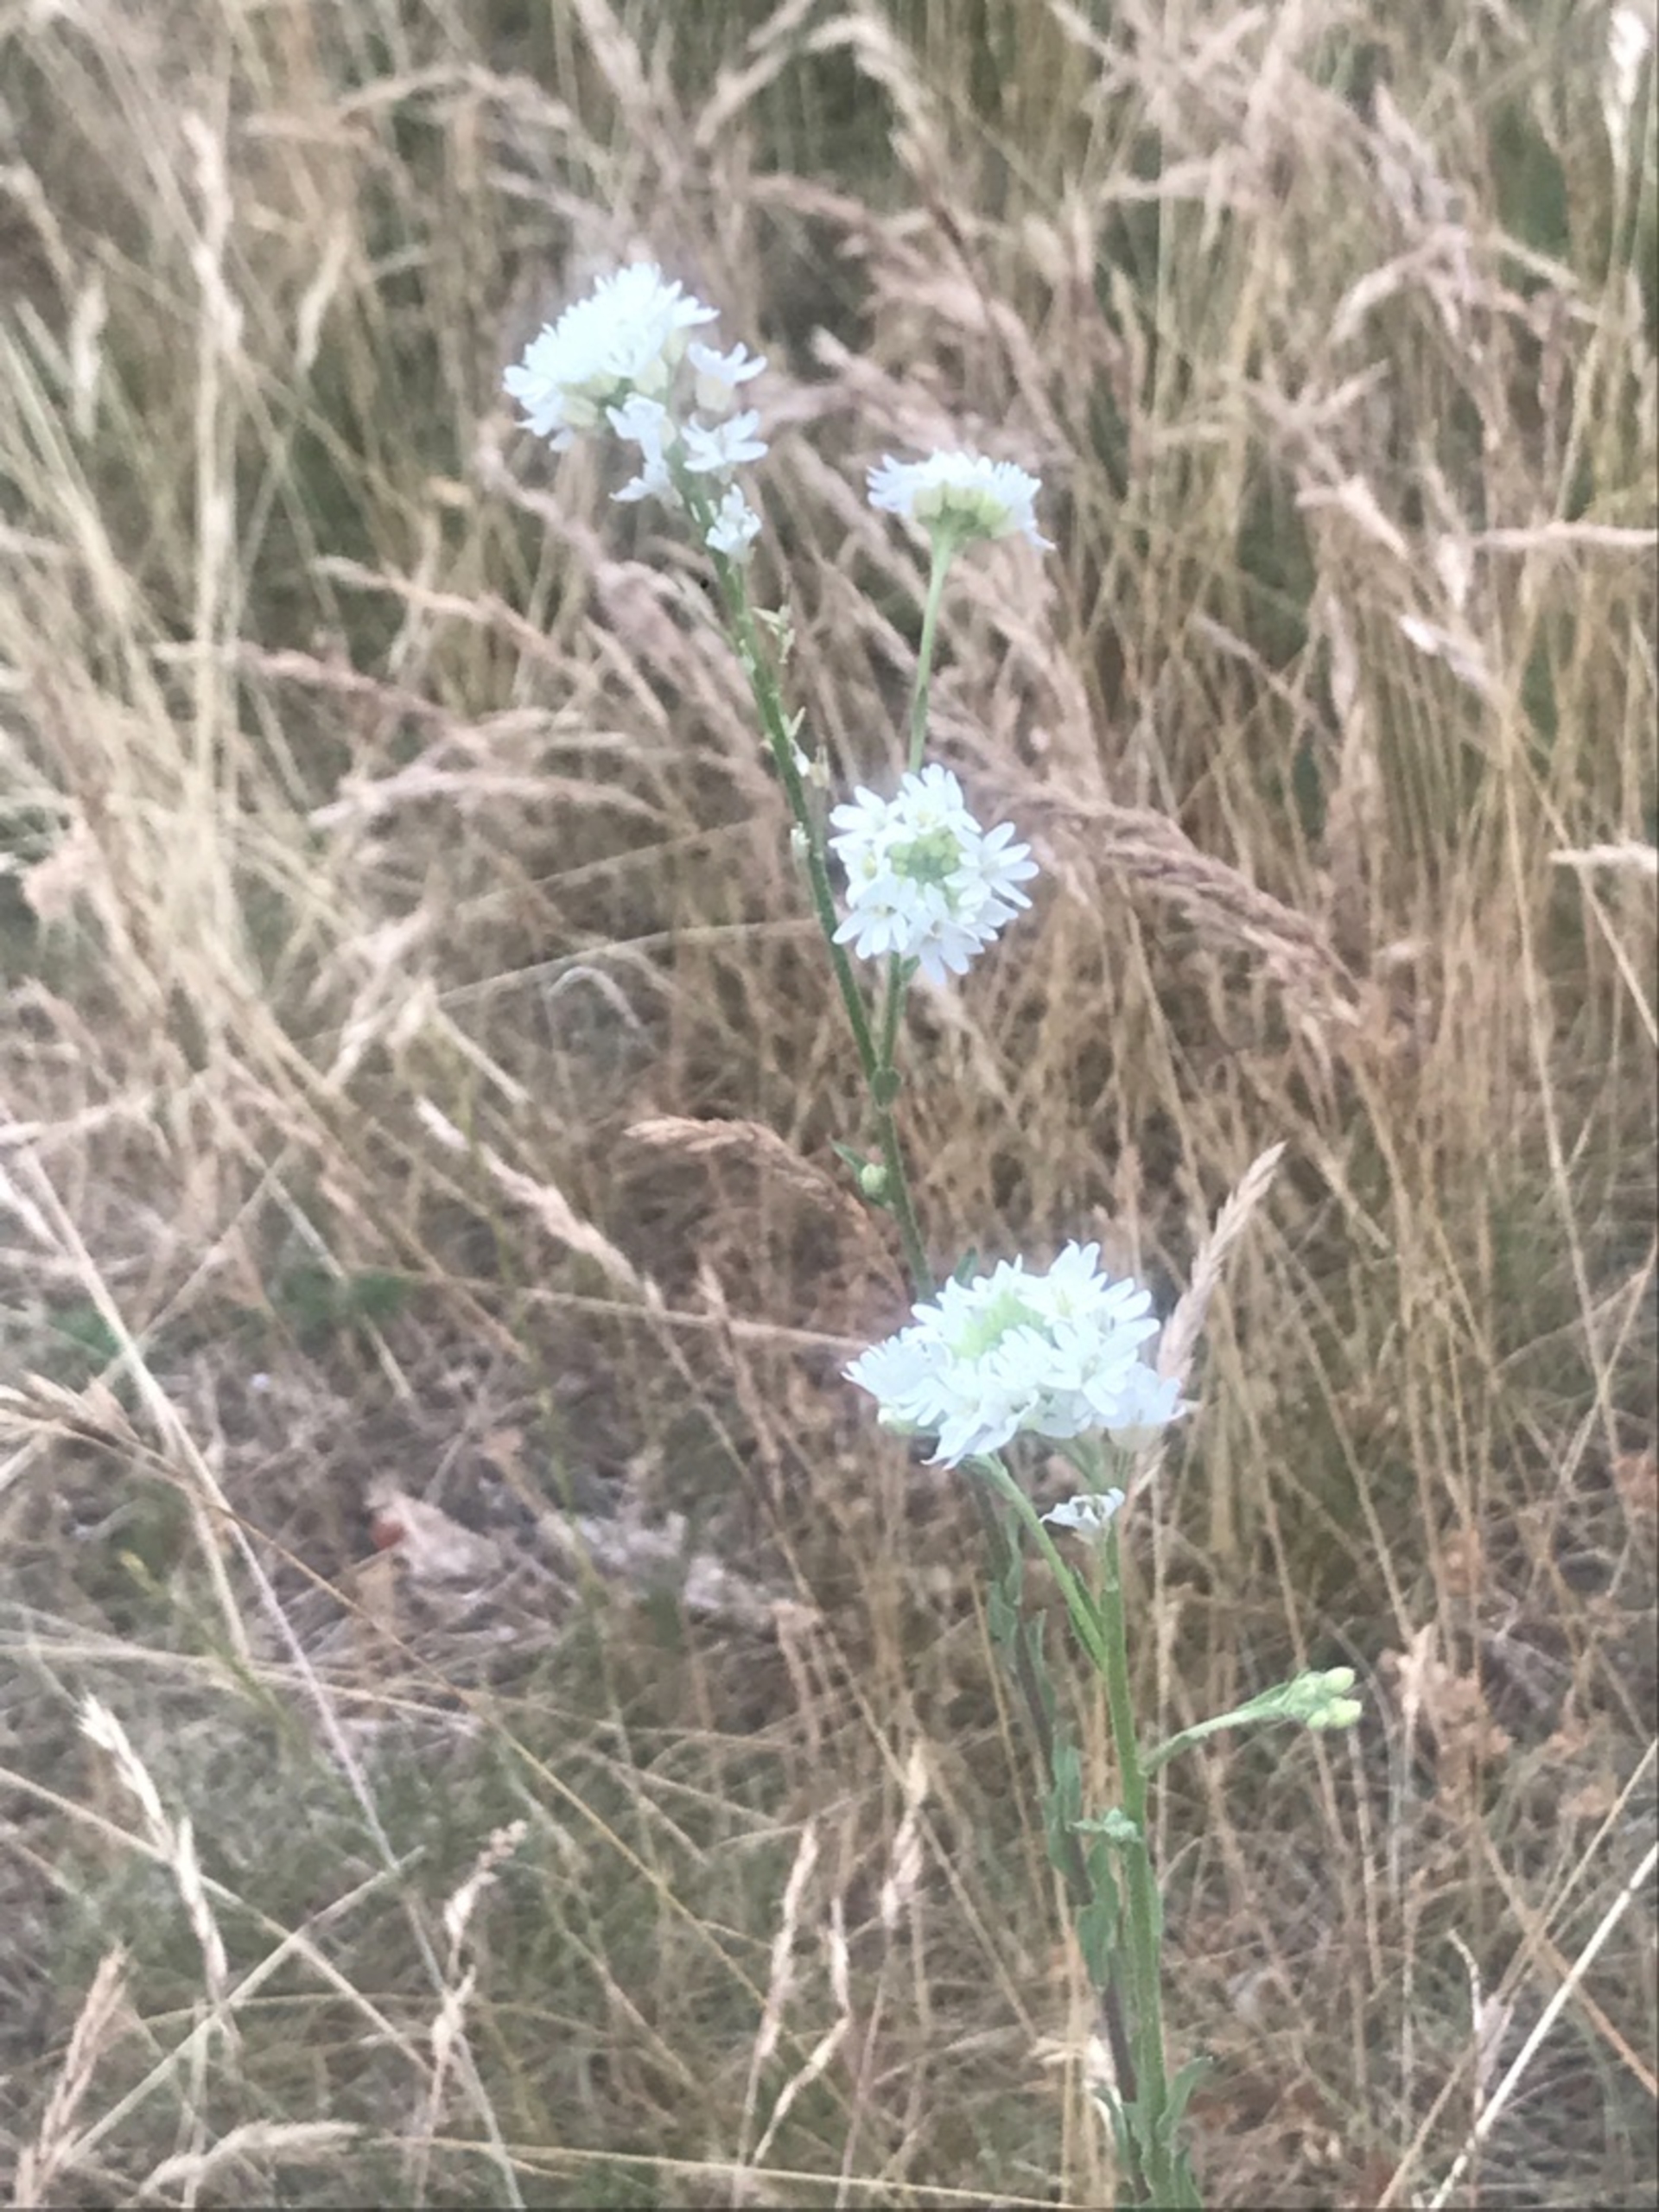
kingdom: Plantae
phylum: Tracheophyta
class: Magnoliopsida
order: Brassicales
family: Brassicaceae
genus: Berteroa
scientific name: Berteroa incana
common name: Kløvplade
